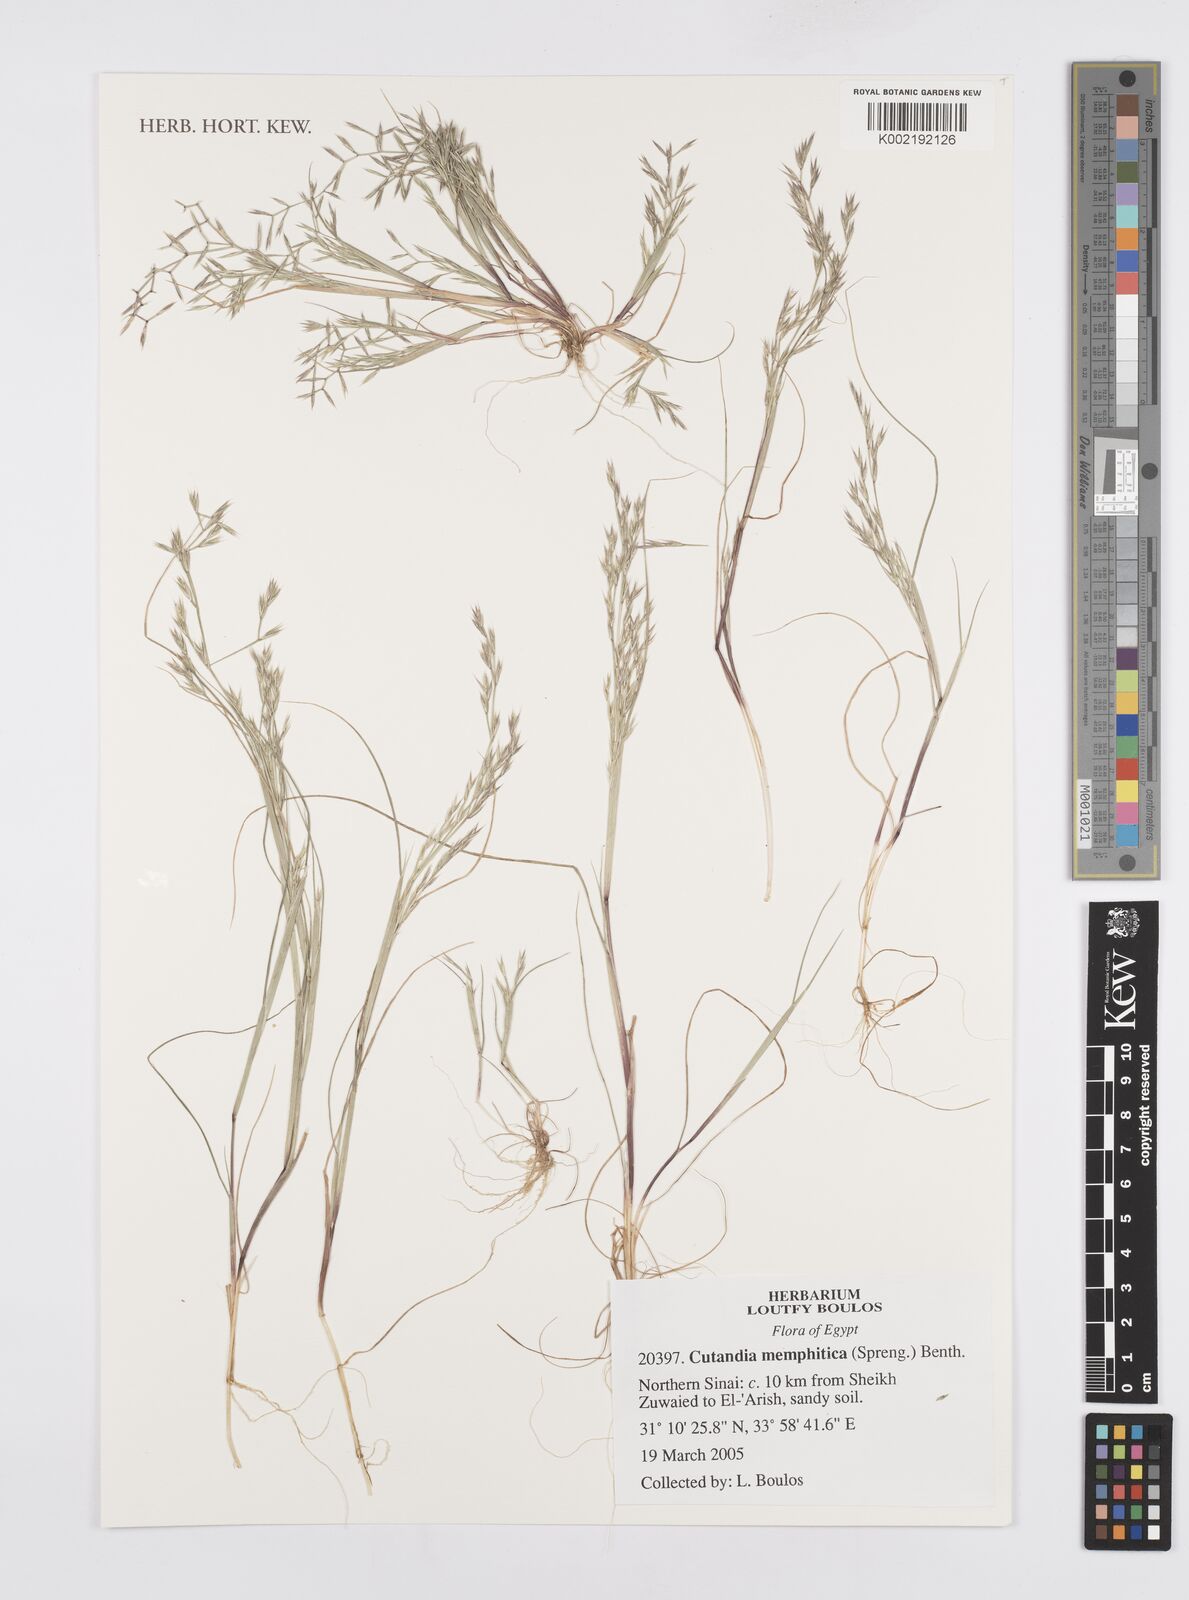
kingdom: Plantae
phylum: Tracheophyta
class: Liliopsida
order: Poales
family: Poaceae
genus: Cutandia
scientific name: Cutandia memphitica
